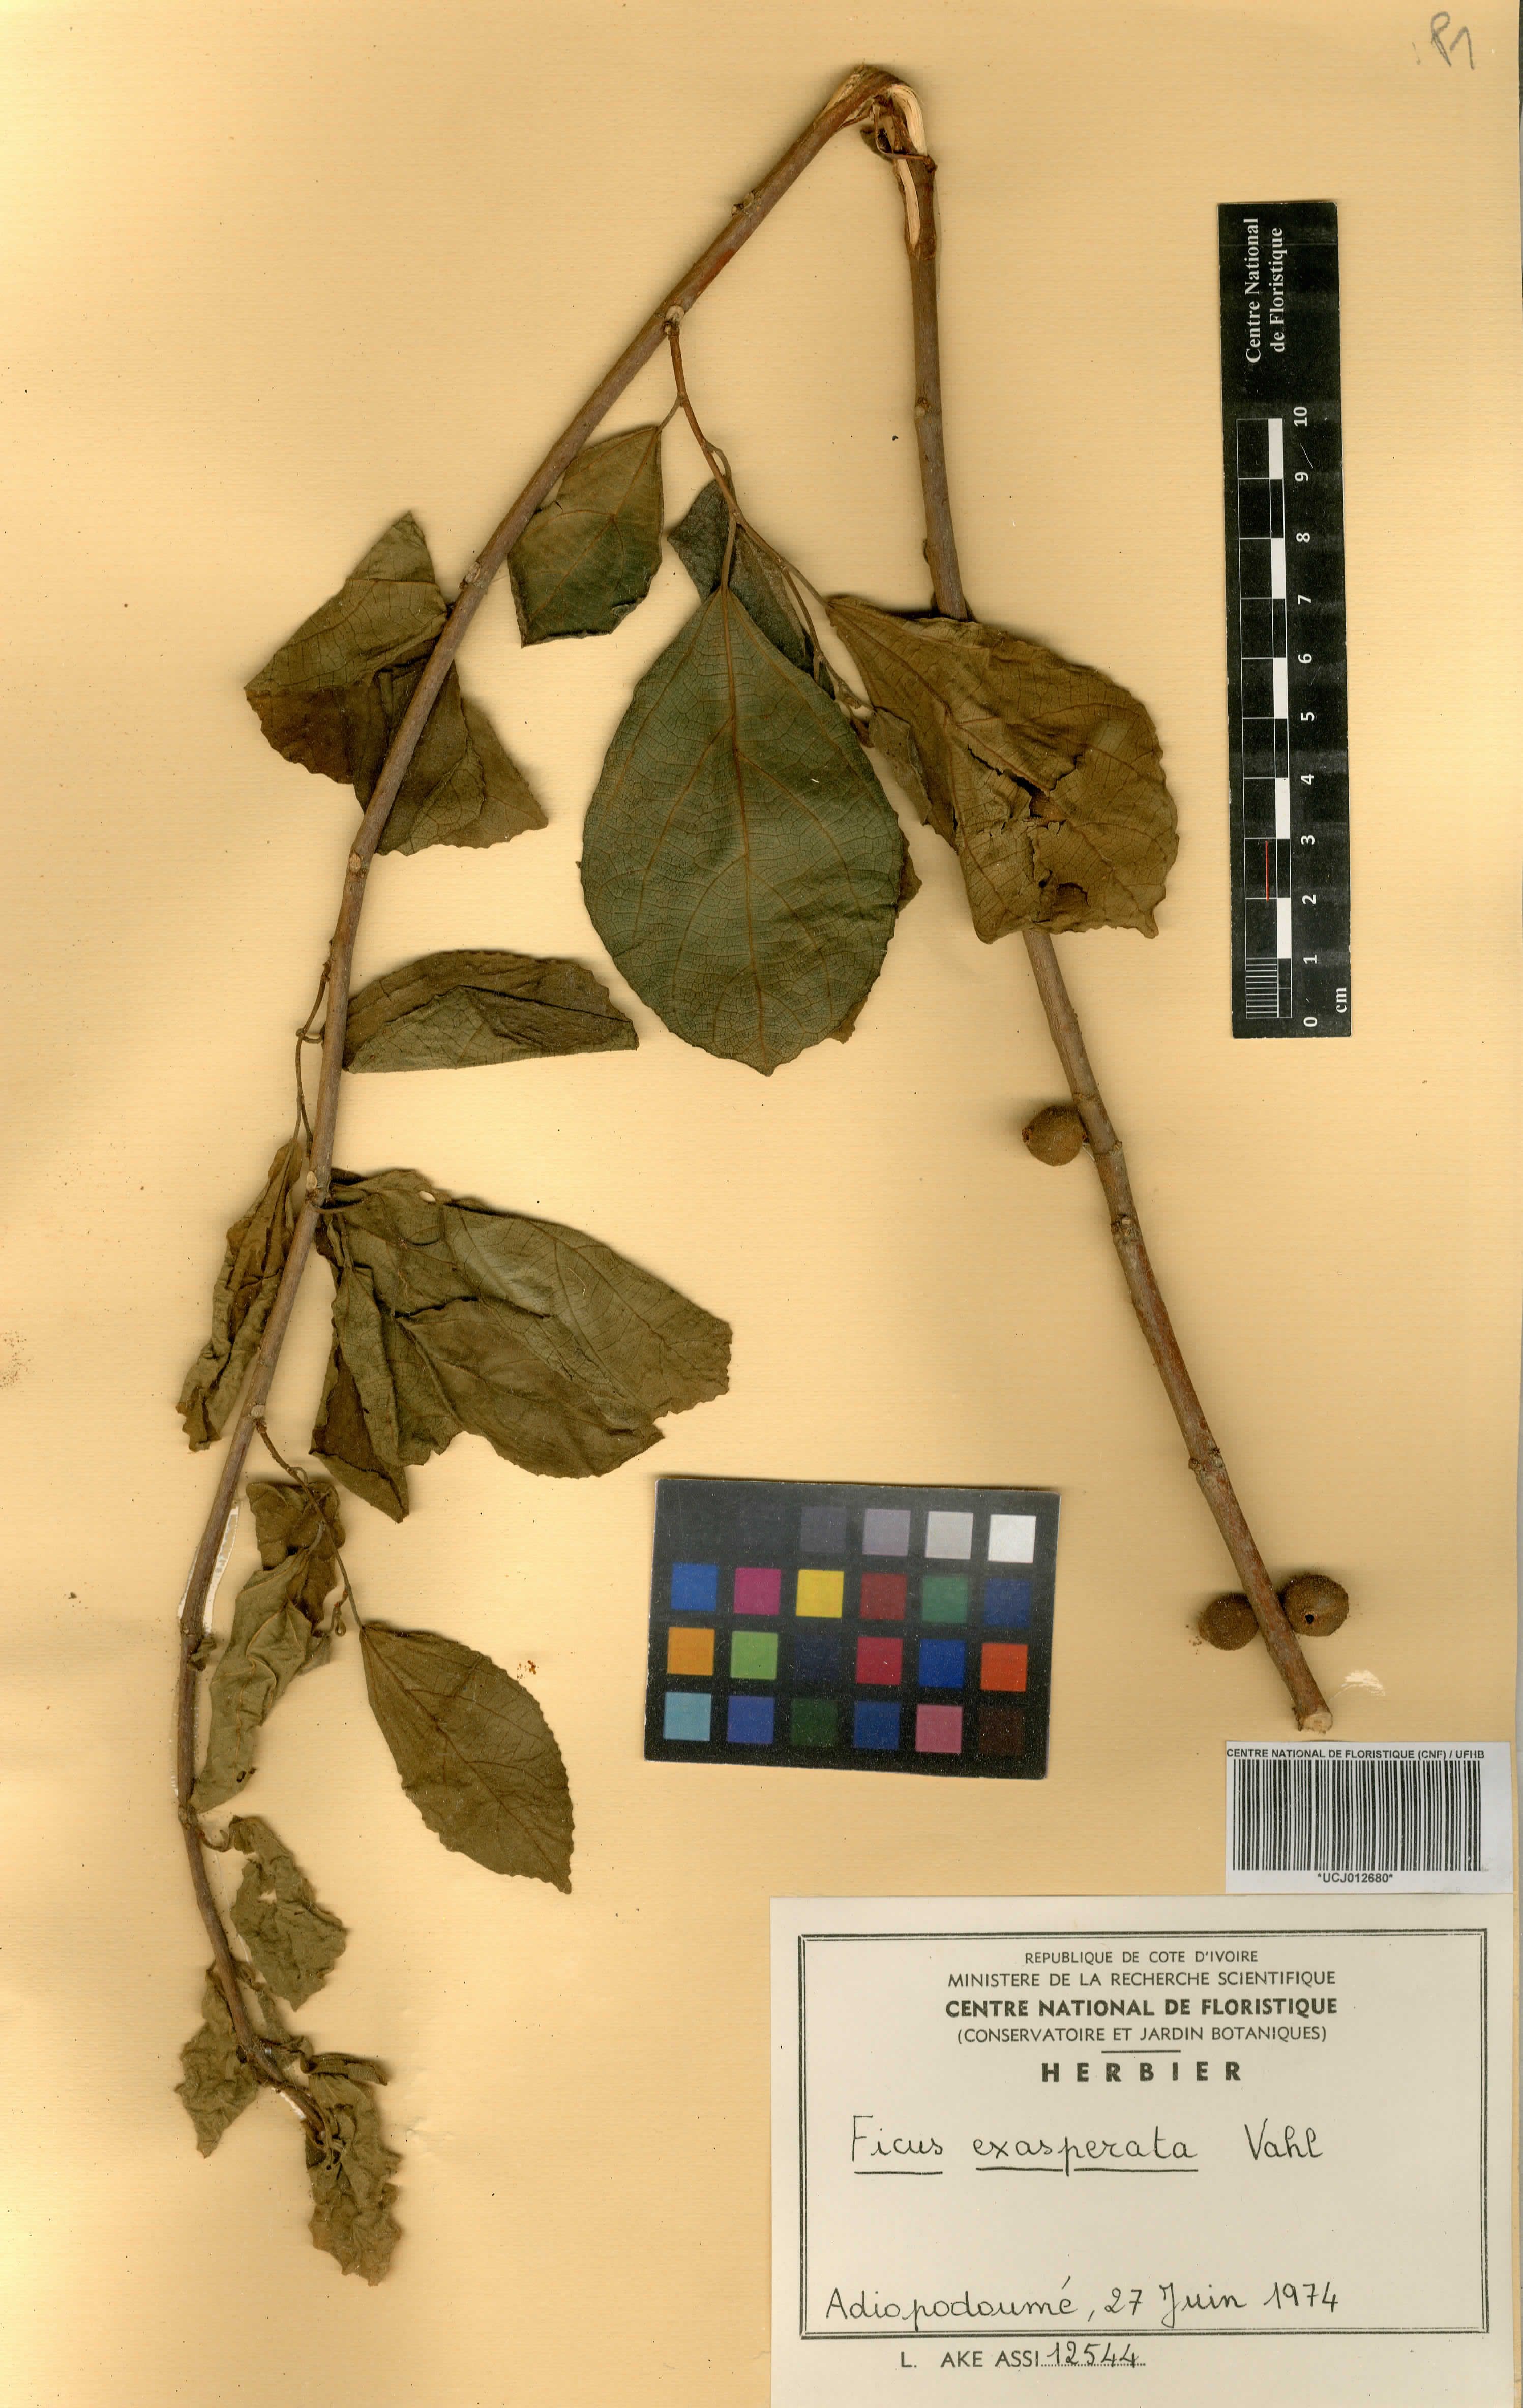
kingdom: Plantae
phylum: Tracheophyta
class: Magnoliopsida
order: Rosales
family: Moraceae
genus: Ficus
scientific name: Ficus ardisioides
